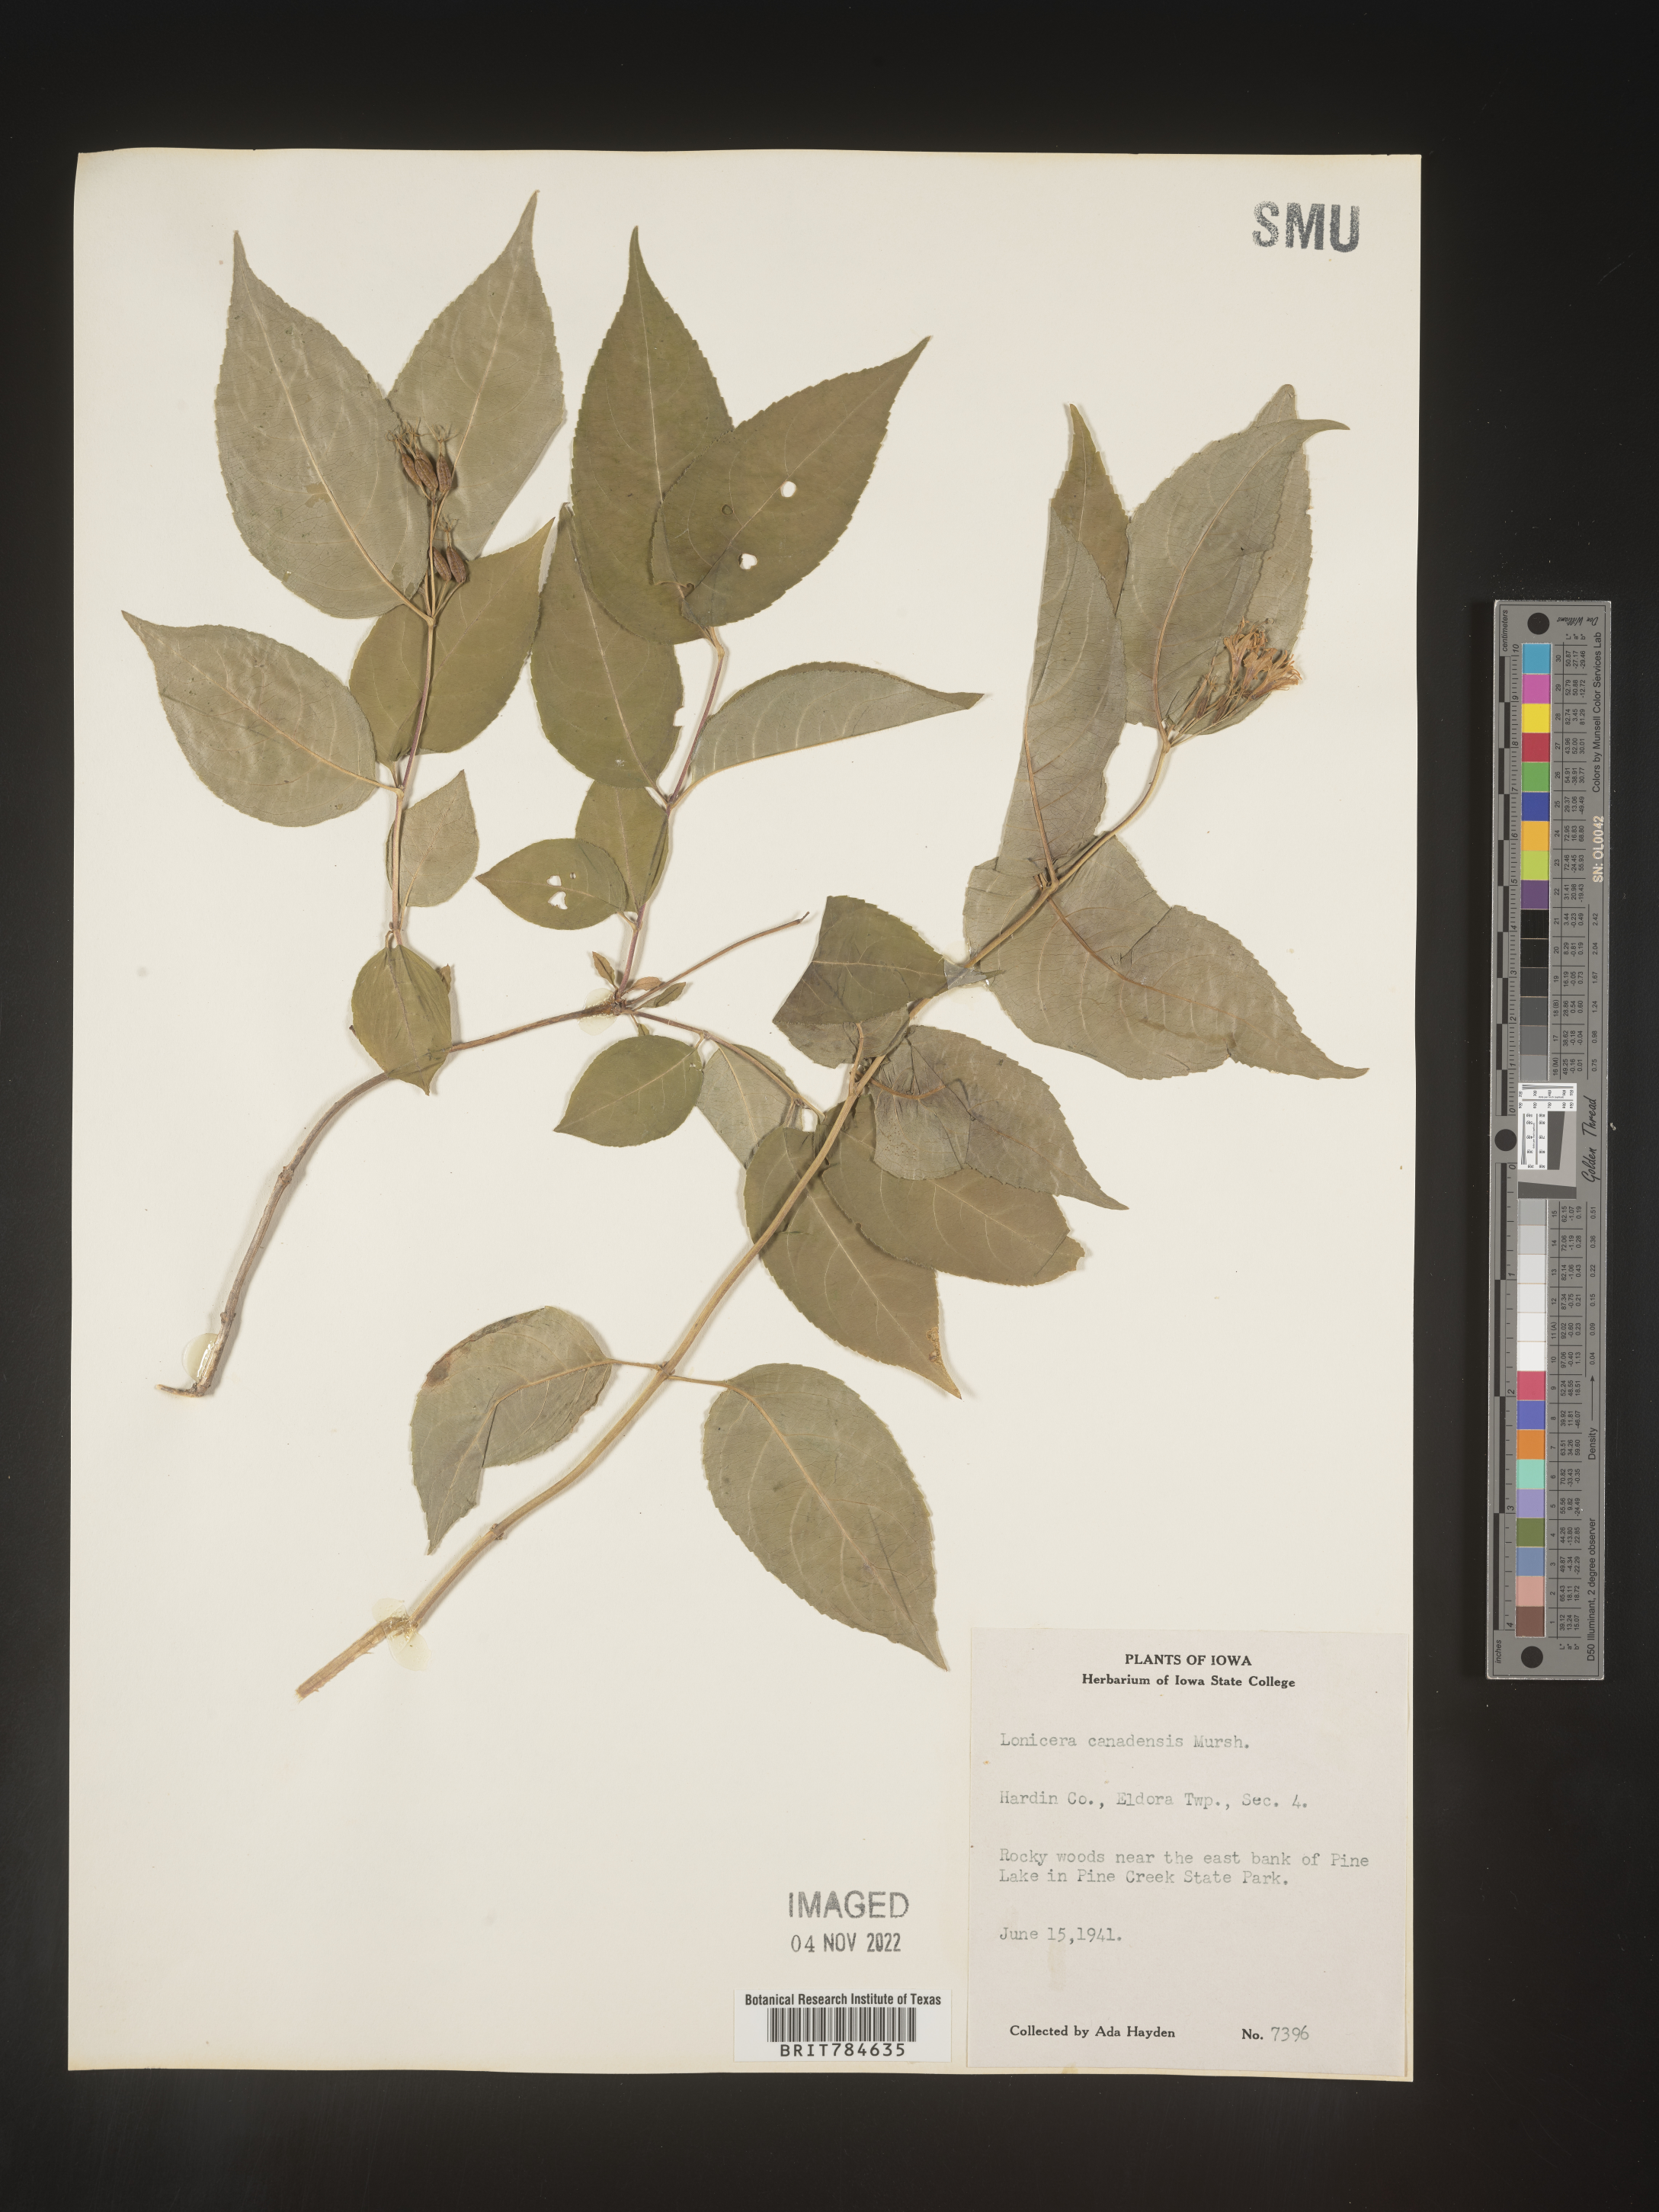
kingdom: Plantae
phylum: Tracheophyta
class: Magnoliopsida
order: Dipsacales
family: Caprifoliaceae
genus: Lonicera
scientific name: Lonicera
